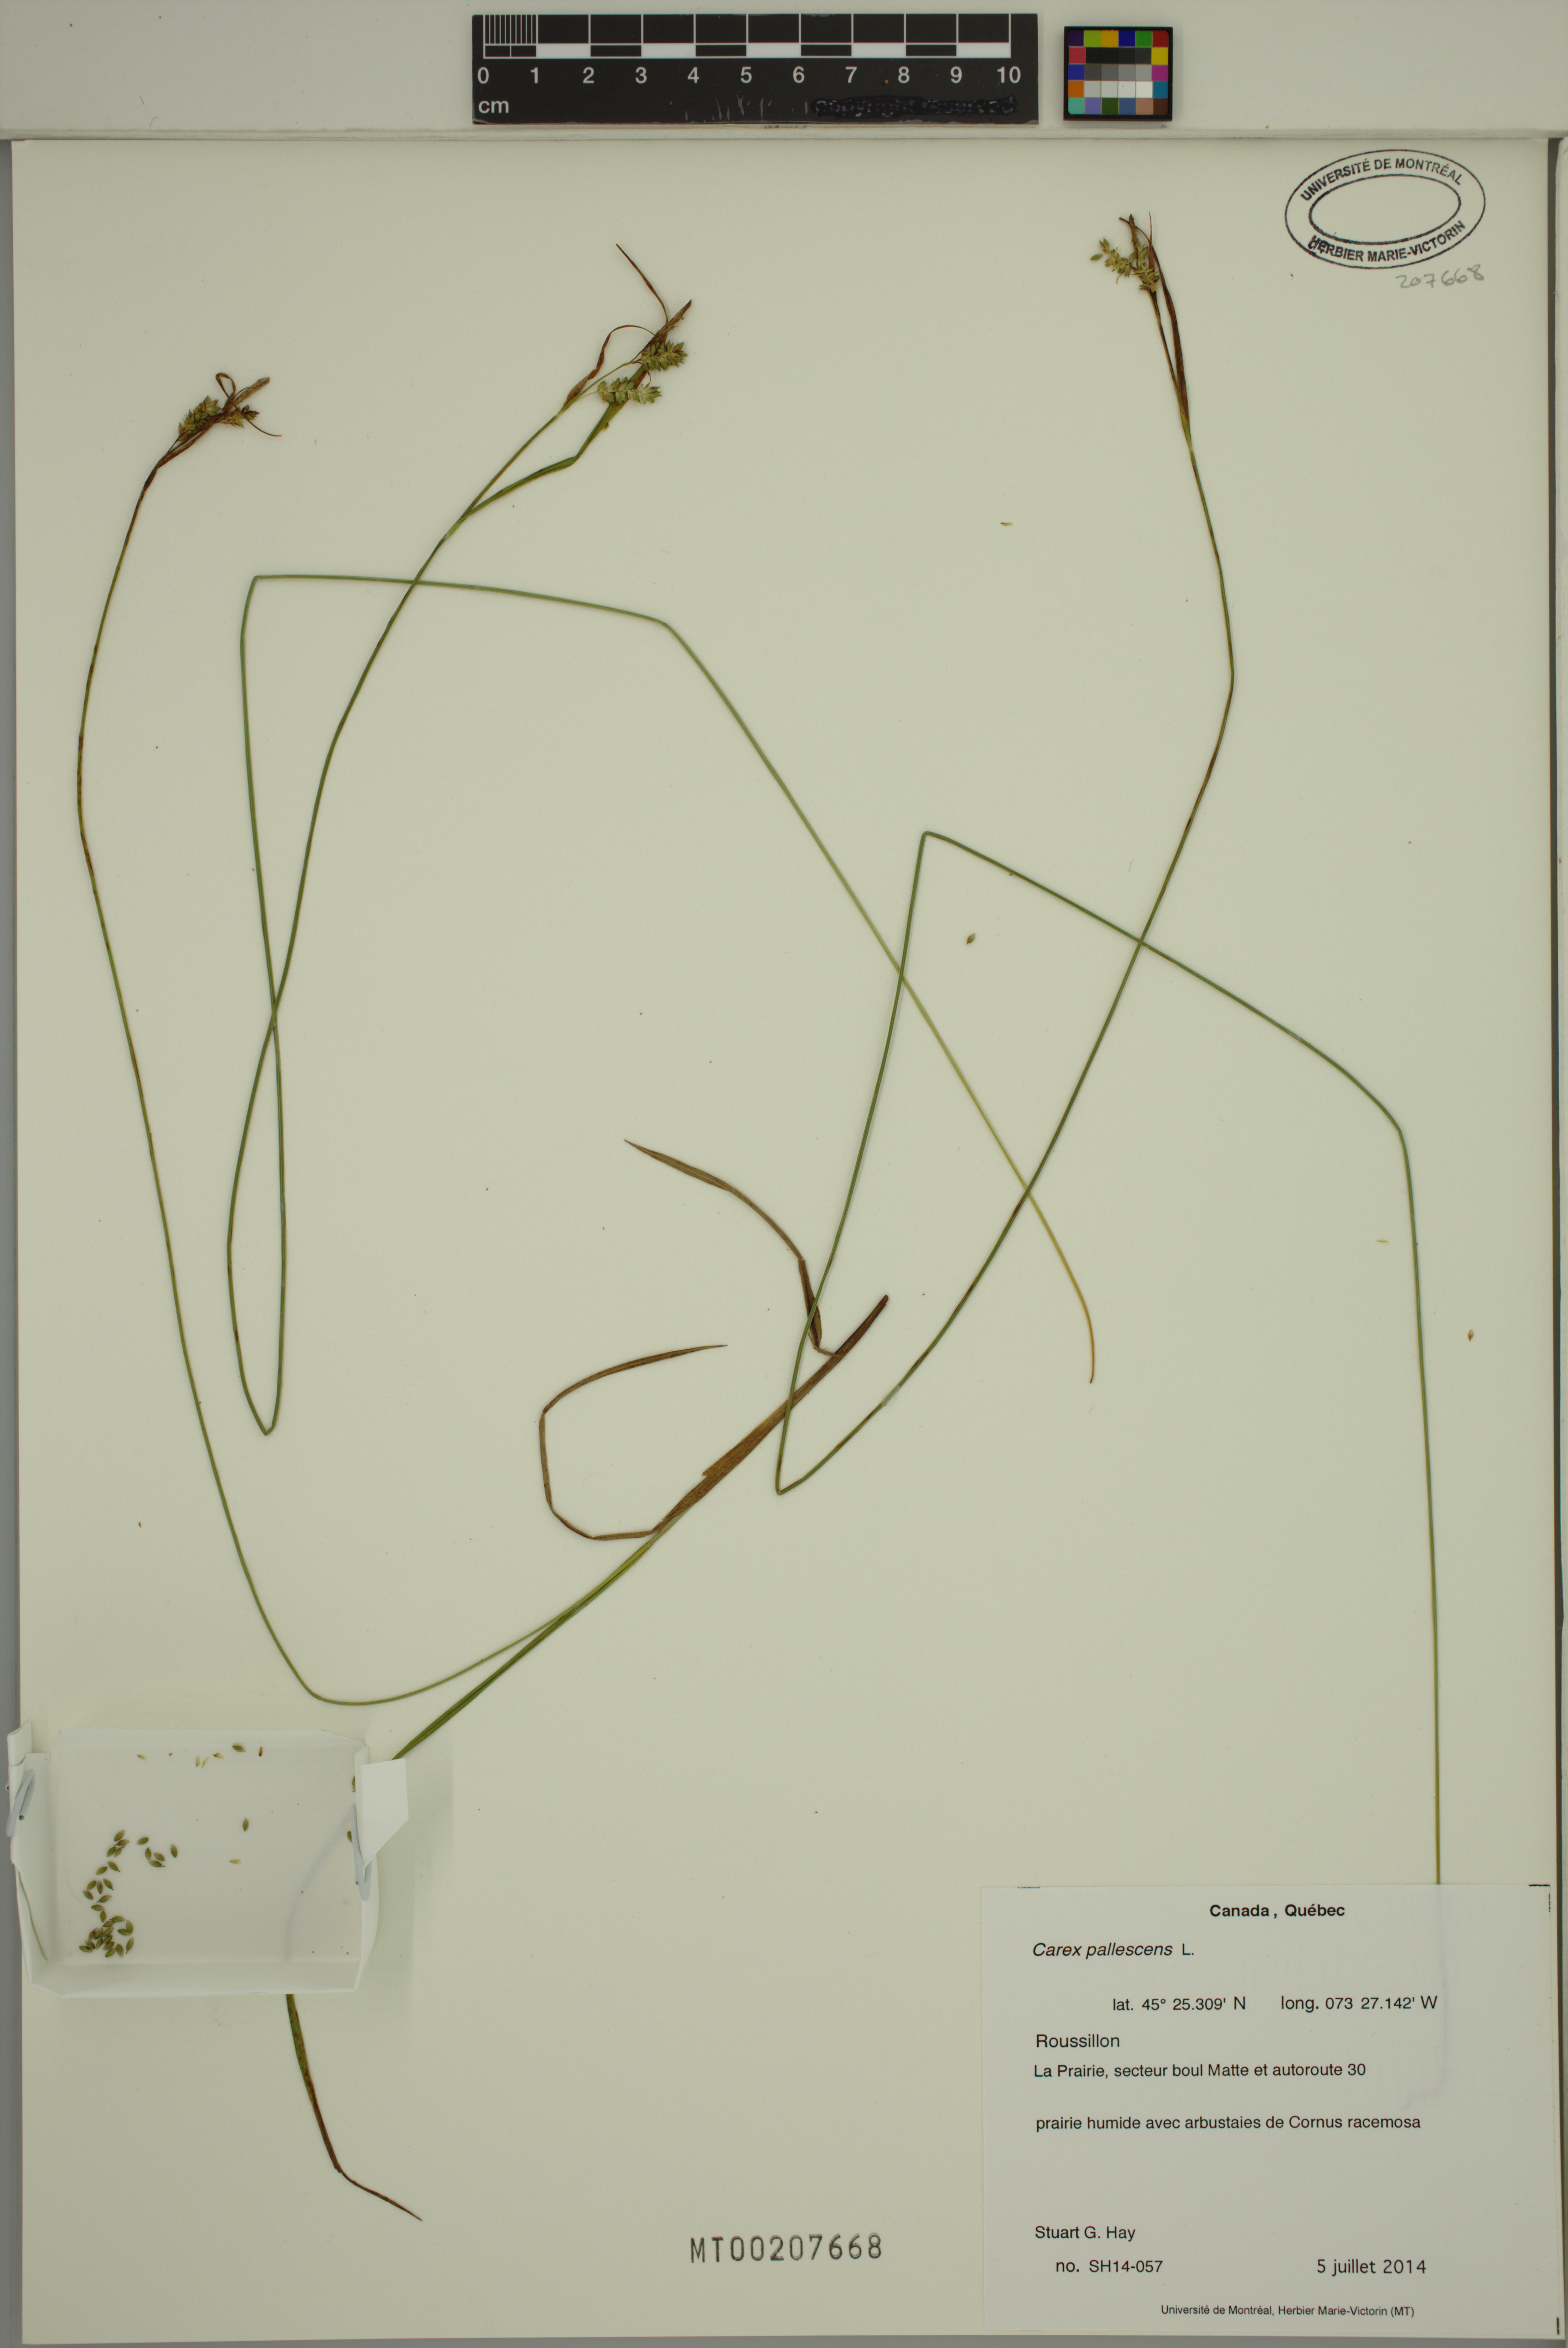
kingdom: Plantae
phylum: Tracheophyta
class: Liliopsida
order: Poales
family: Cyperaceae
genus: Carex
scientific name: Carex pallescens
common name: Pale sedge
